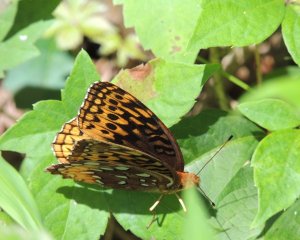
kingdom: Animalia
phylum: Arthropoda
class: Insecta
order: Lepidoptera
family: Nymphalidae
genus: Speyeria
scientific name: Speyeria cybele
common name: Great Spangled Fritillary
